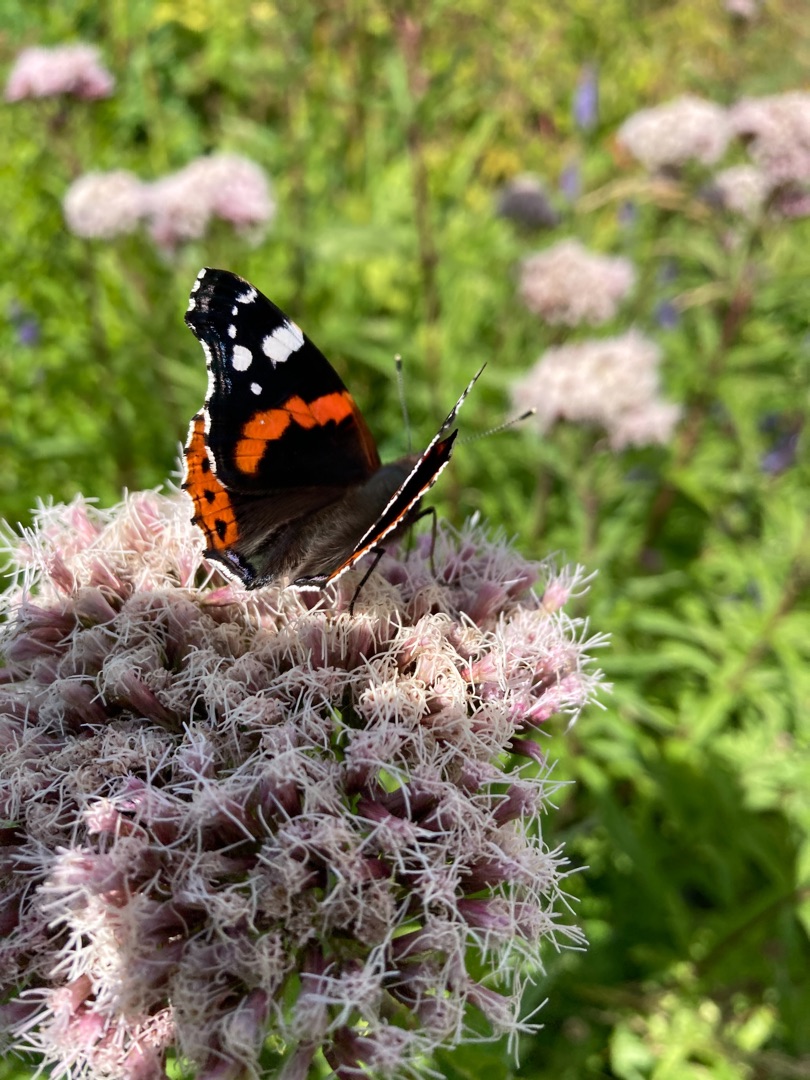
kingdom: Animalia
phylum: Arthropoda
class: Insecta
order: Lepidoptera
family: Nymphalidae
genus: Vanessa
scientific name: Vanessa atalanta
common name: Admiral
